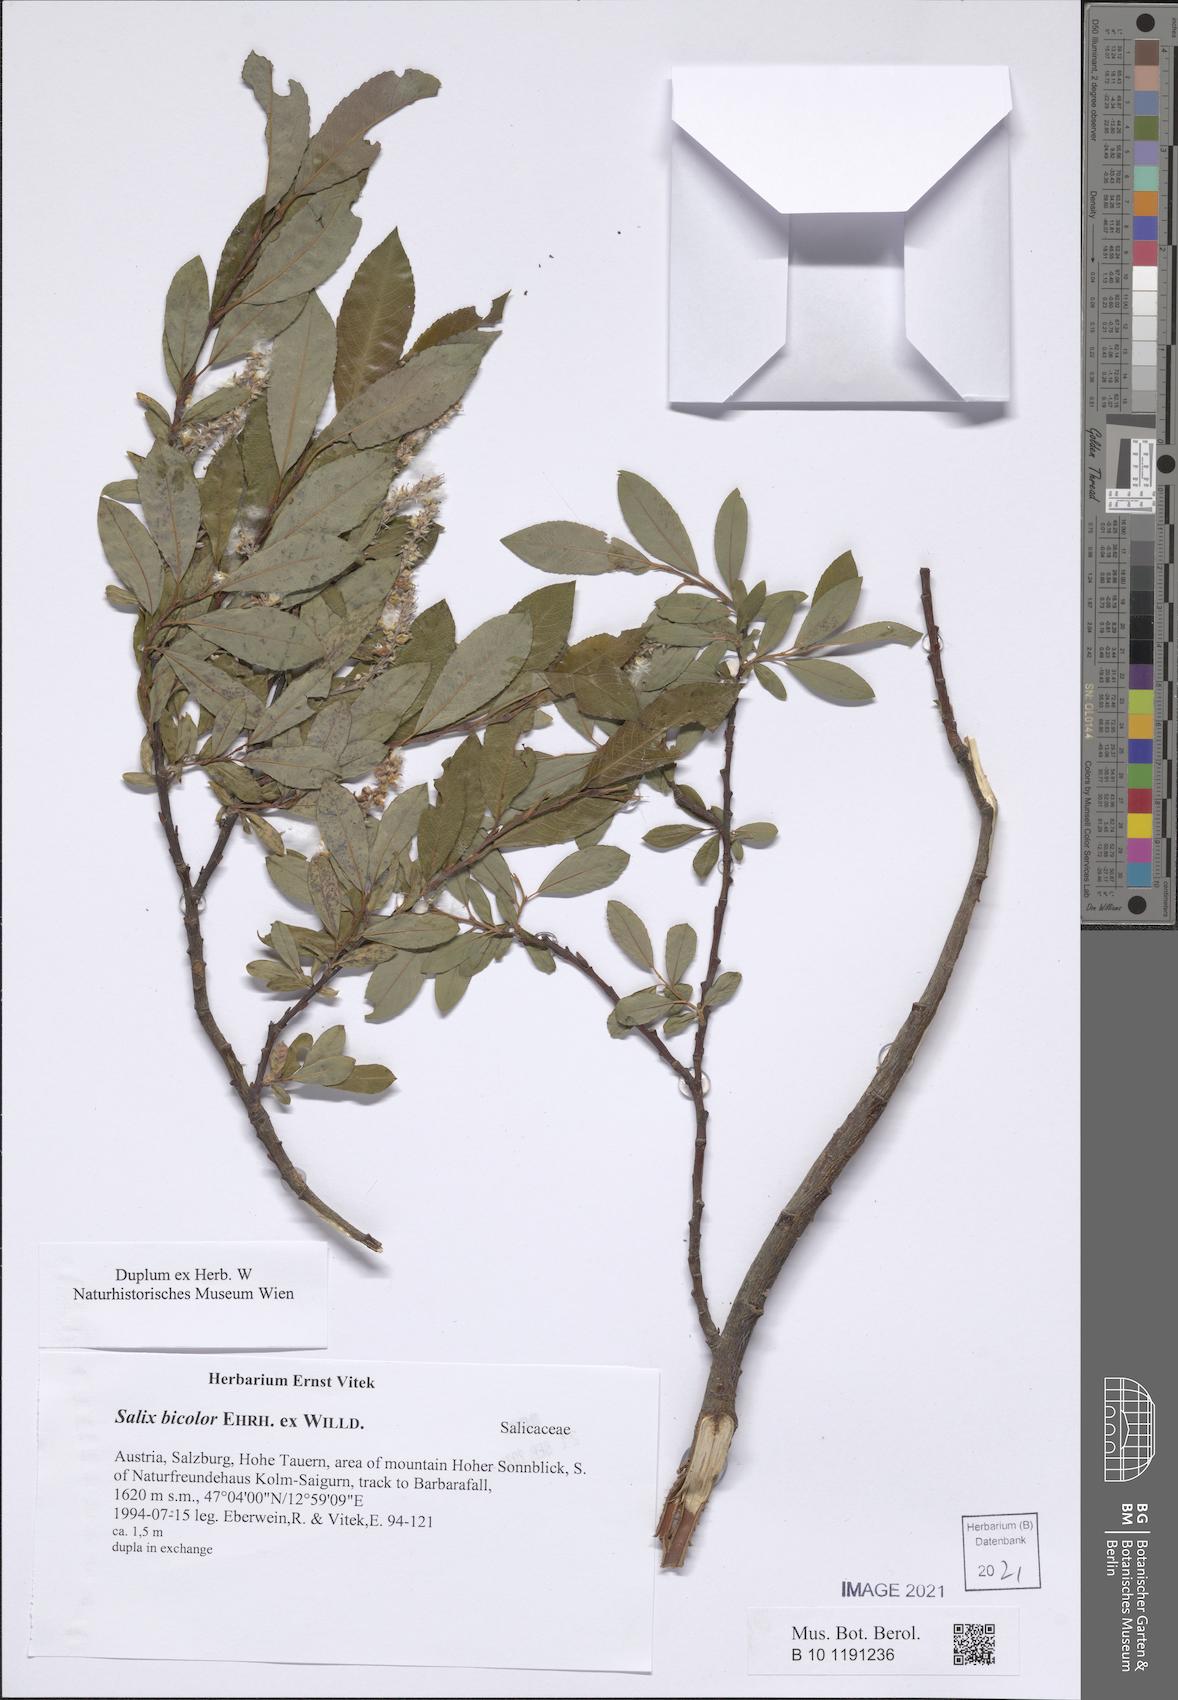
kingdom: Plantae
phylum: Tracheophyta
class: Magnoliopsida
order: Malpighiales
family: Salicaceae
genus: Salix
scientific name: Salix bicolor
